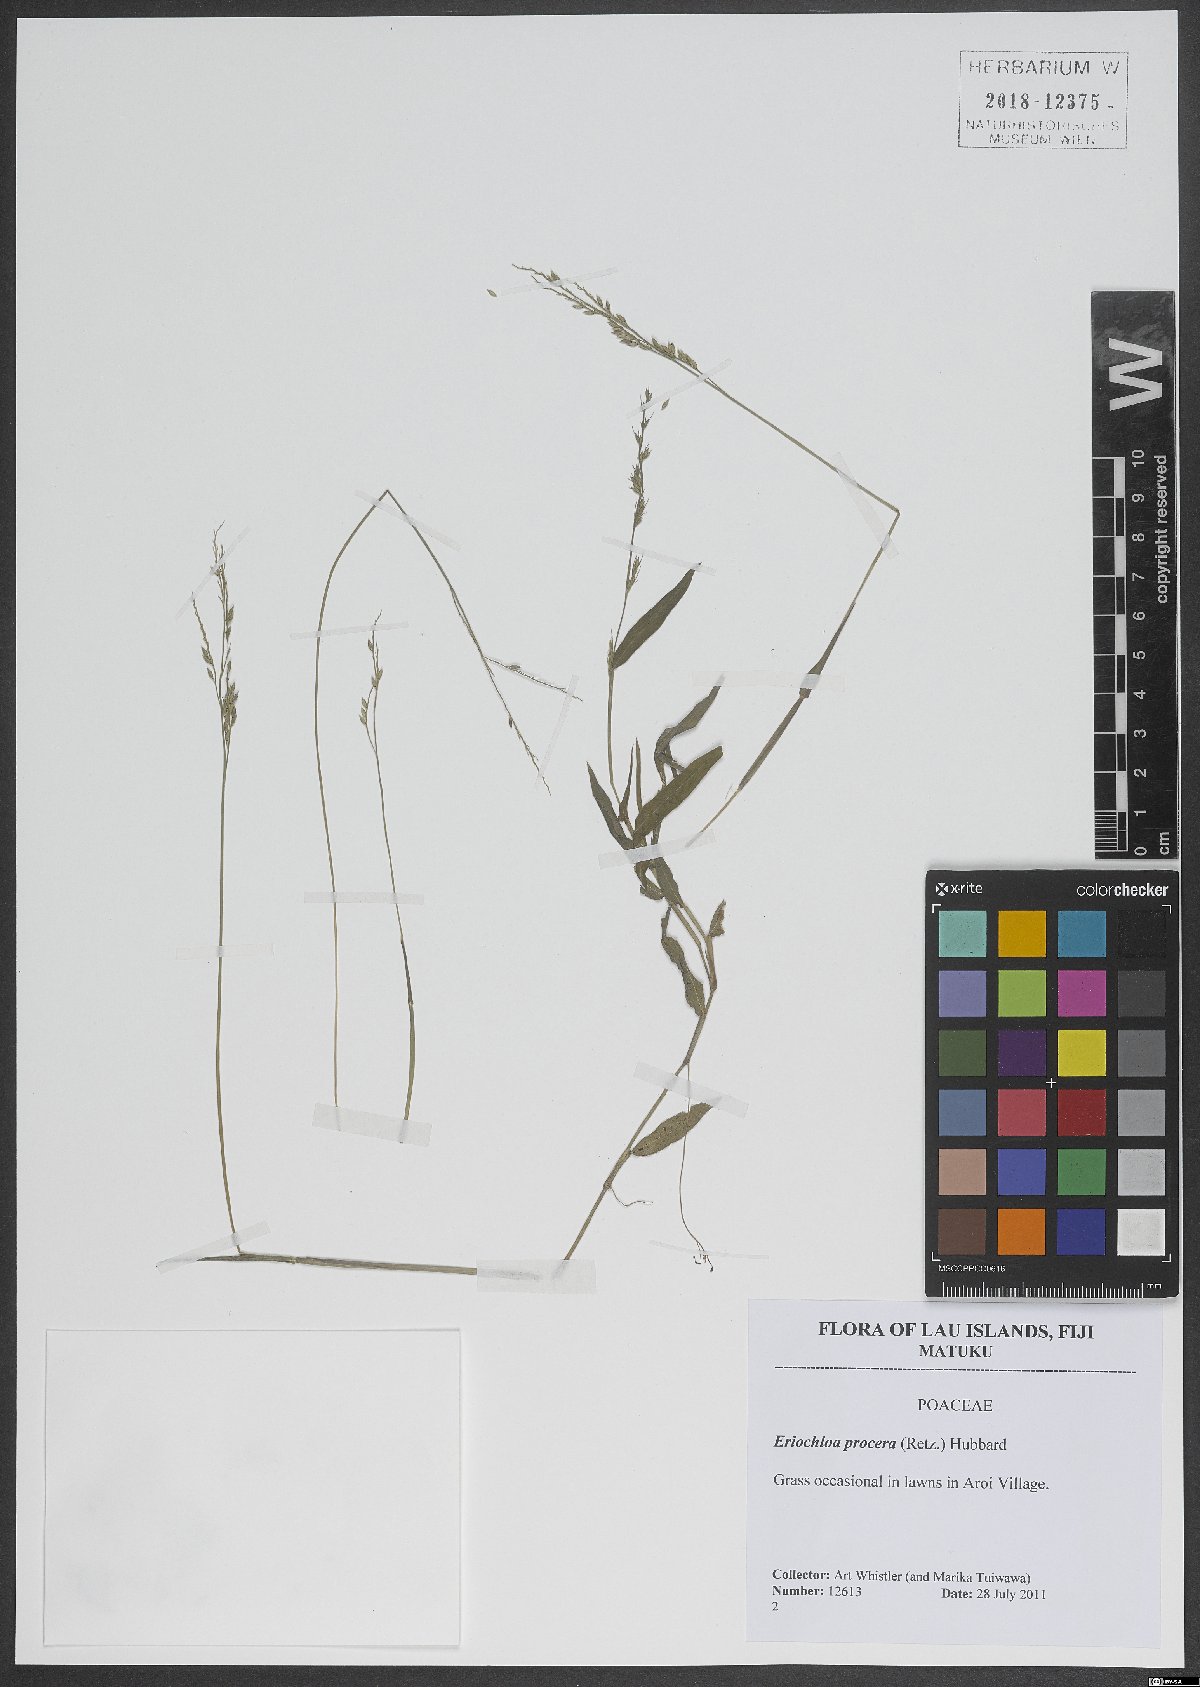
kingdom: Plantae
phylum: Tracheophyta
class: Liliopsida
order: Poales
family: Poaceae
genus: Eriochloa
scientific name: Eriochloa procera
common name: Spring grass
